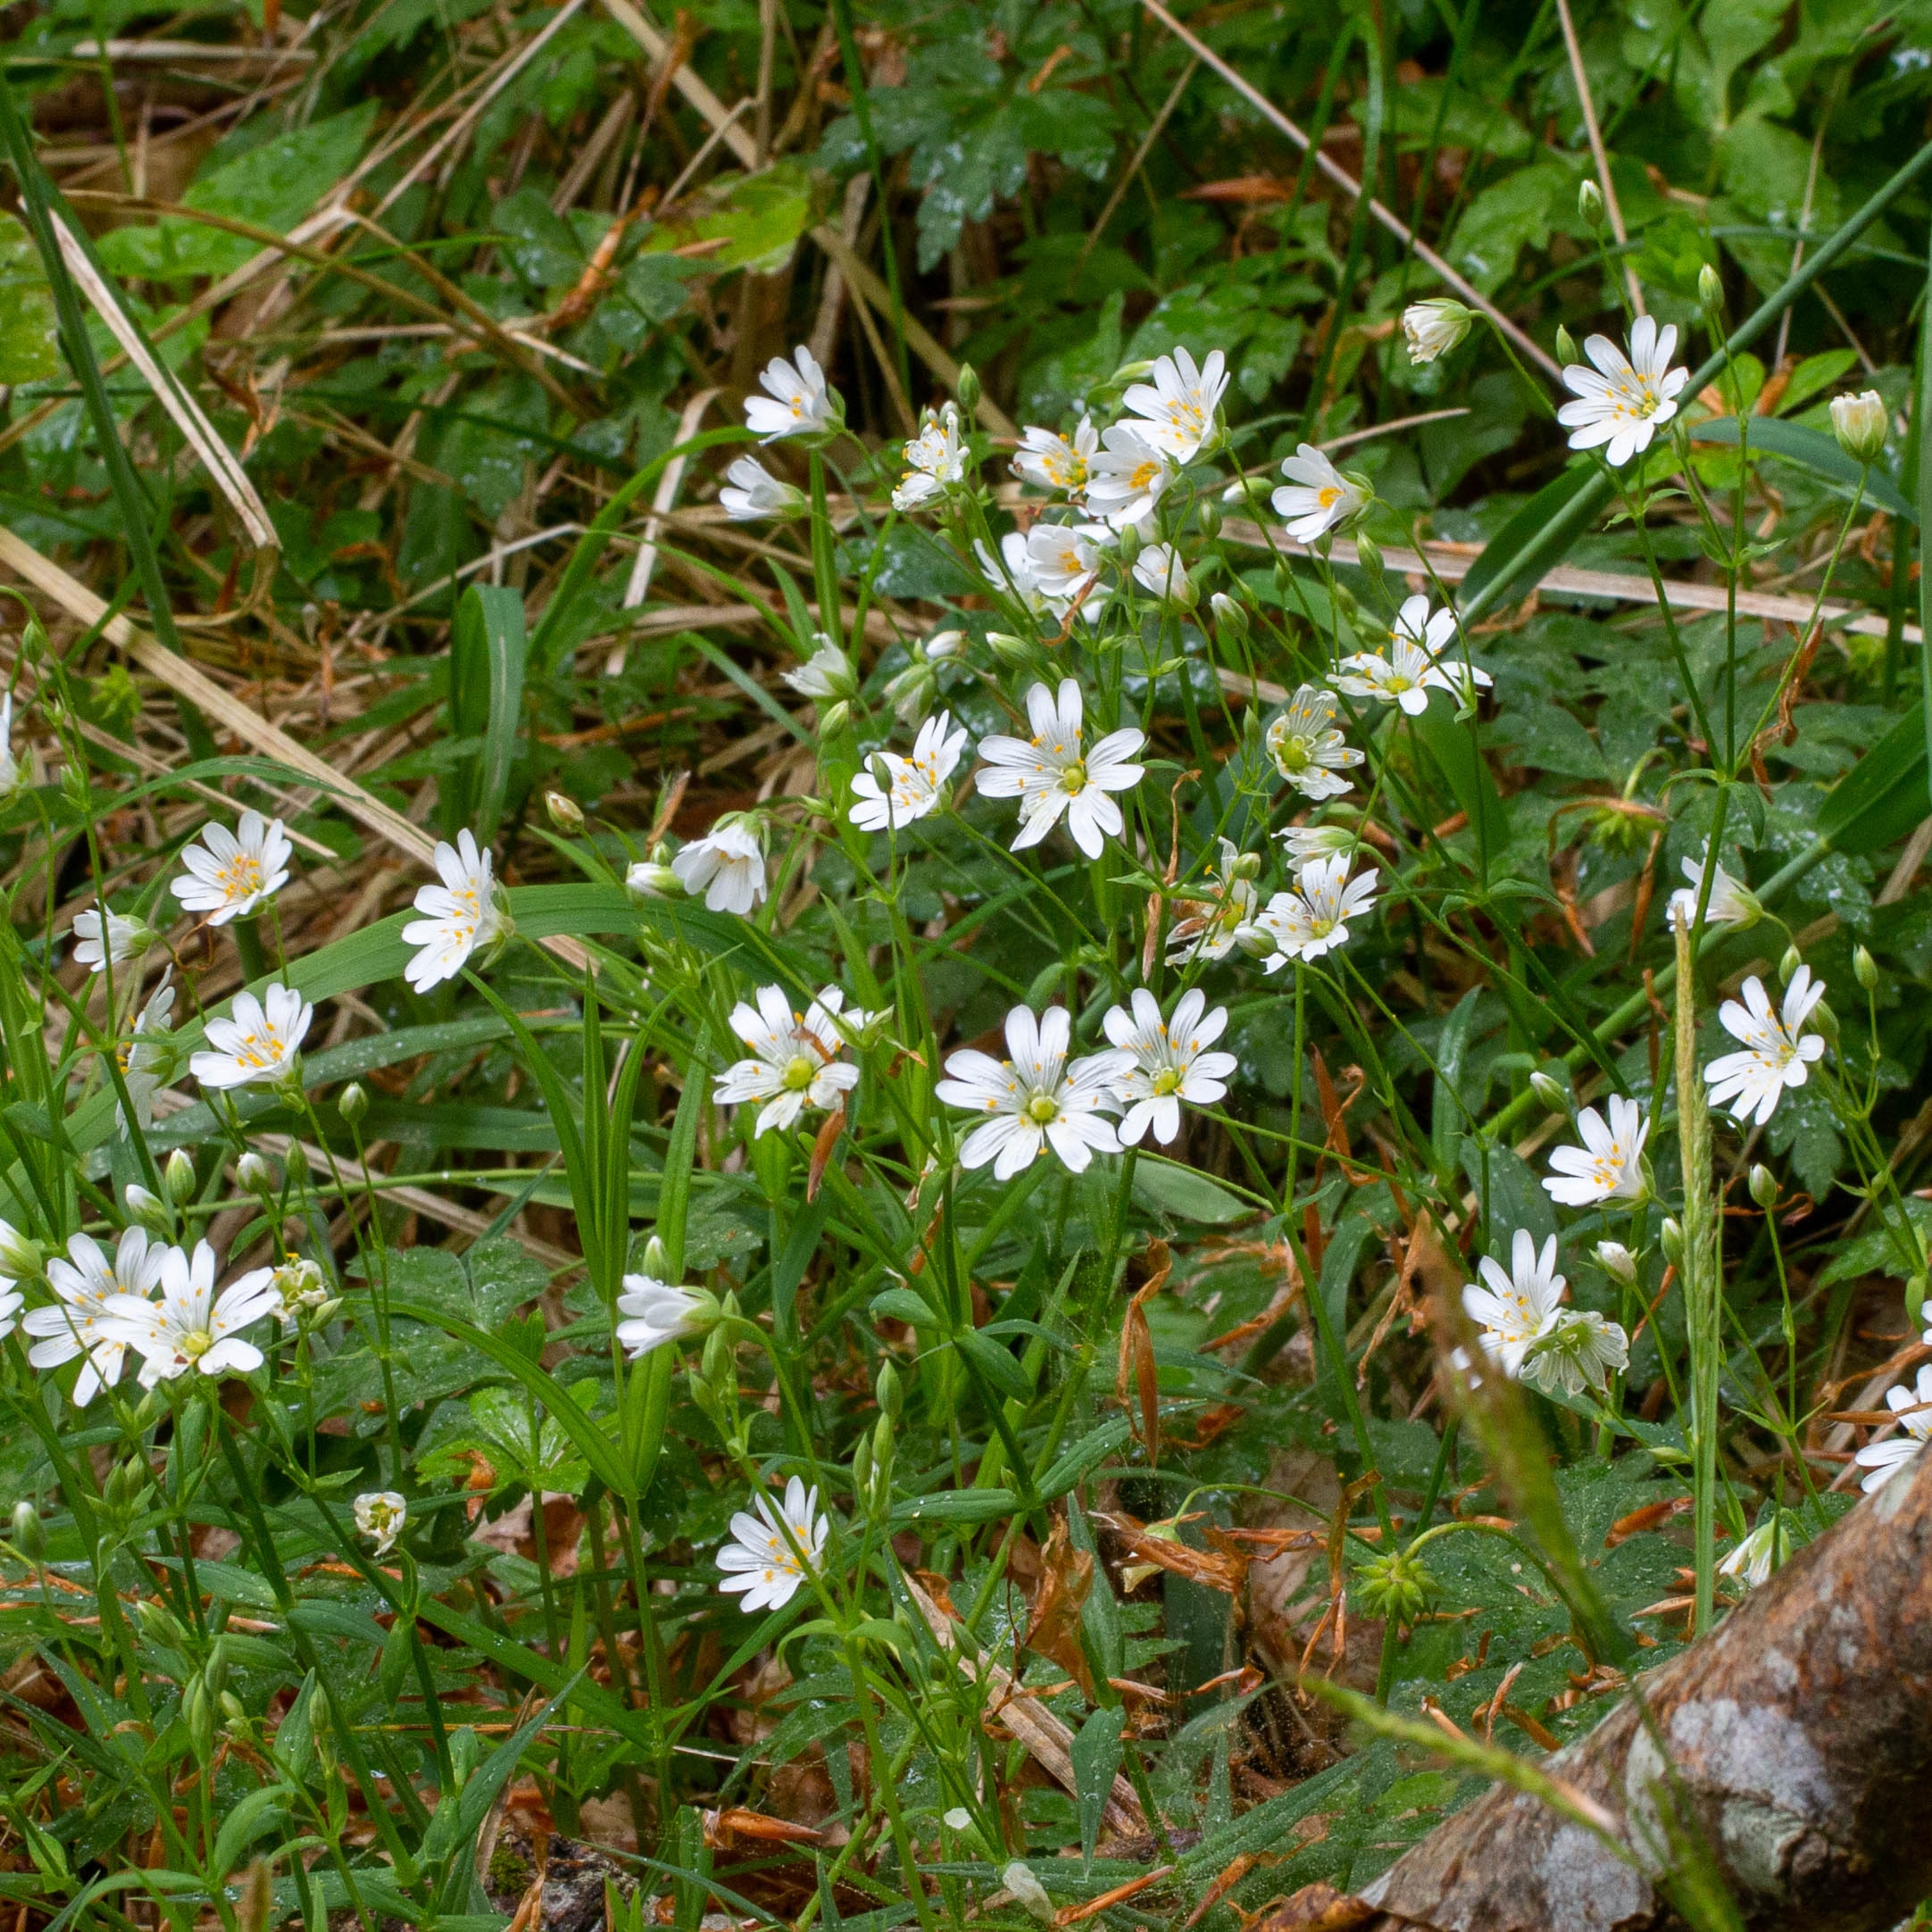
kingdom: Plantae
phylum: Tracheophyta
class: Magnoliopsida
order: Caryophyllales
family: Caryophyllaceae
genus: Rabelera
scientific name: Rabelera holostea
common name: Stor fladstjerne
